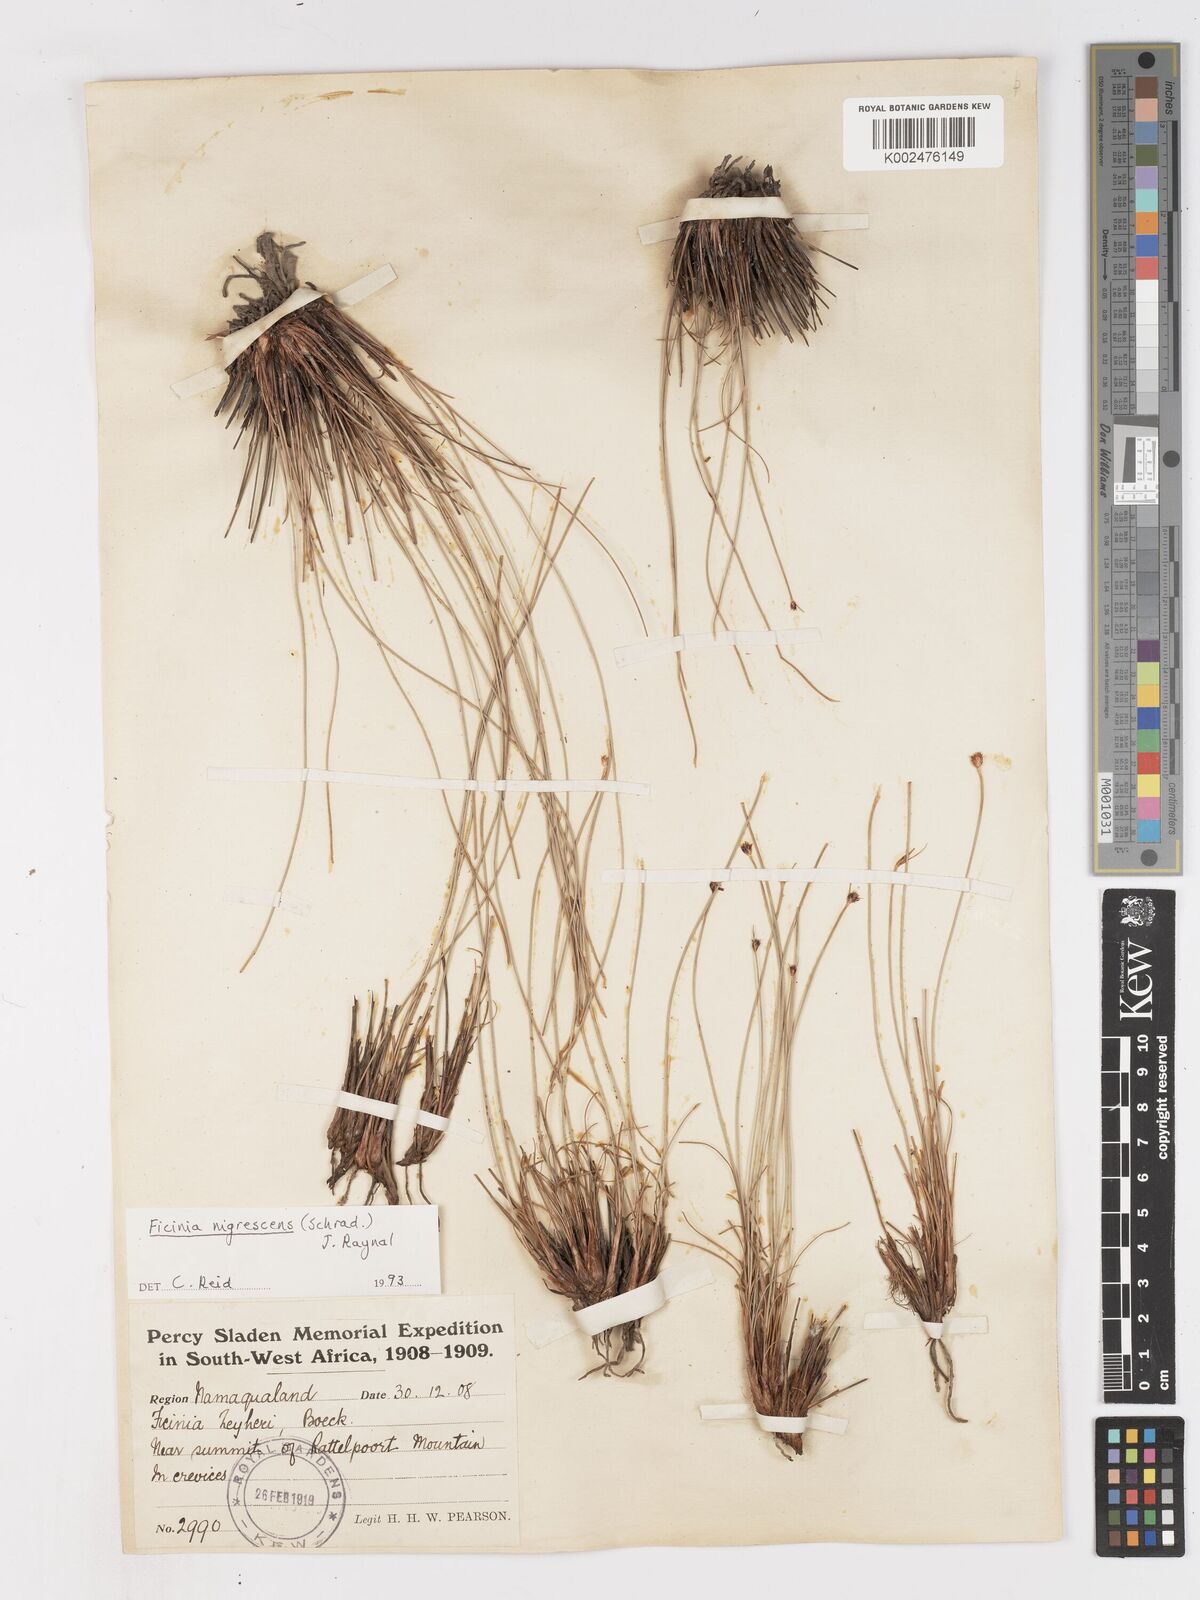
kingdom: Plantae
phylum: Tracheophyta
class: Liliopsida
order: Poales
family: Cyperaceae
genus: Ficinia
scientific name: Ficinia nigrescens
